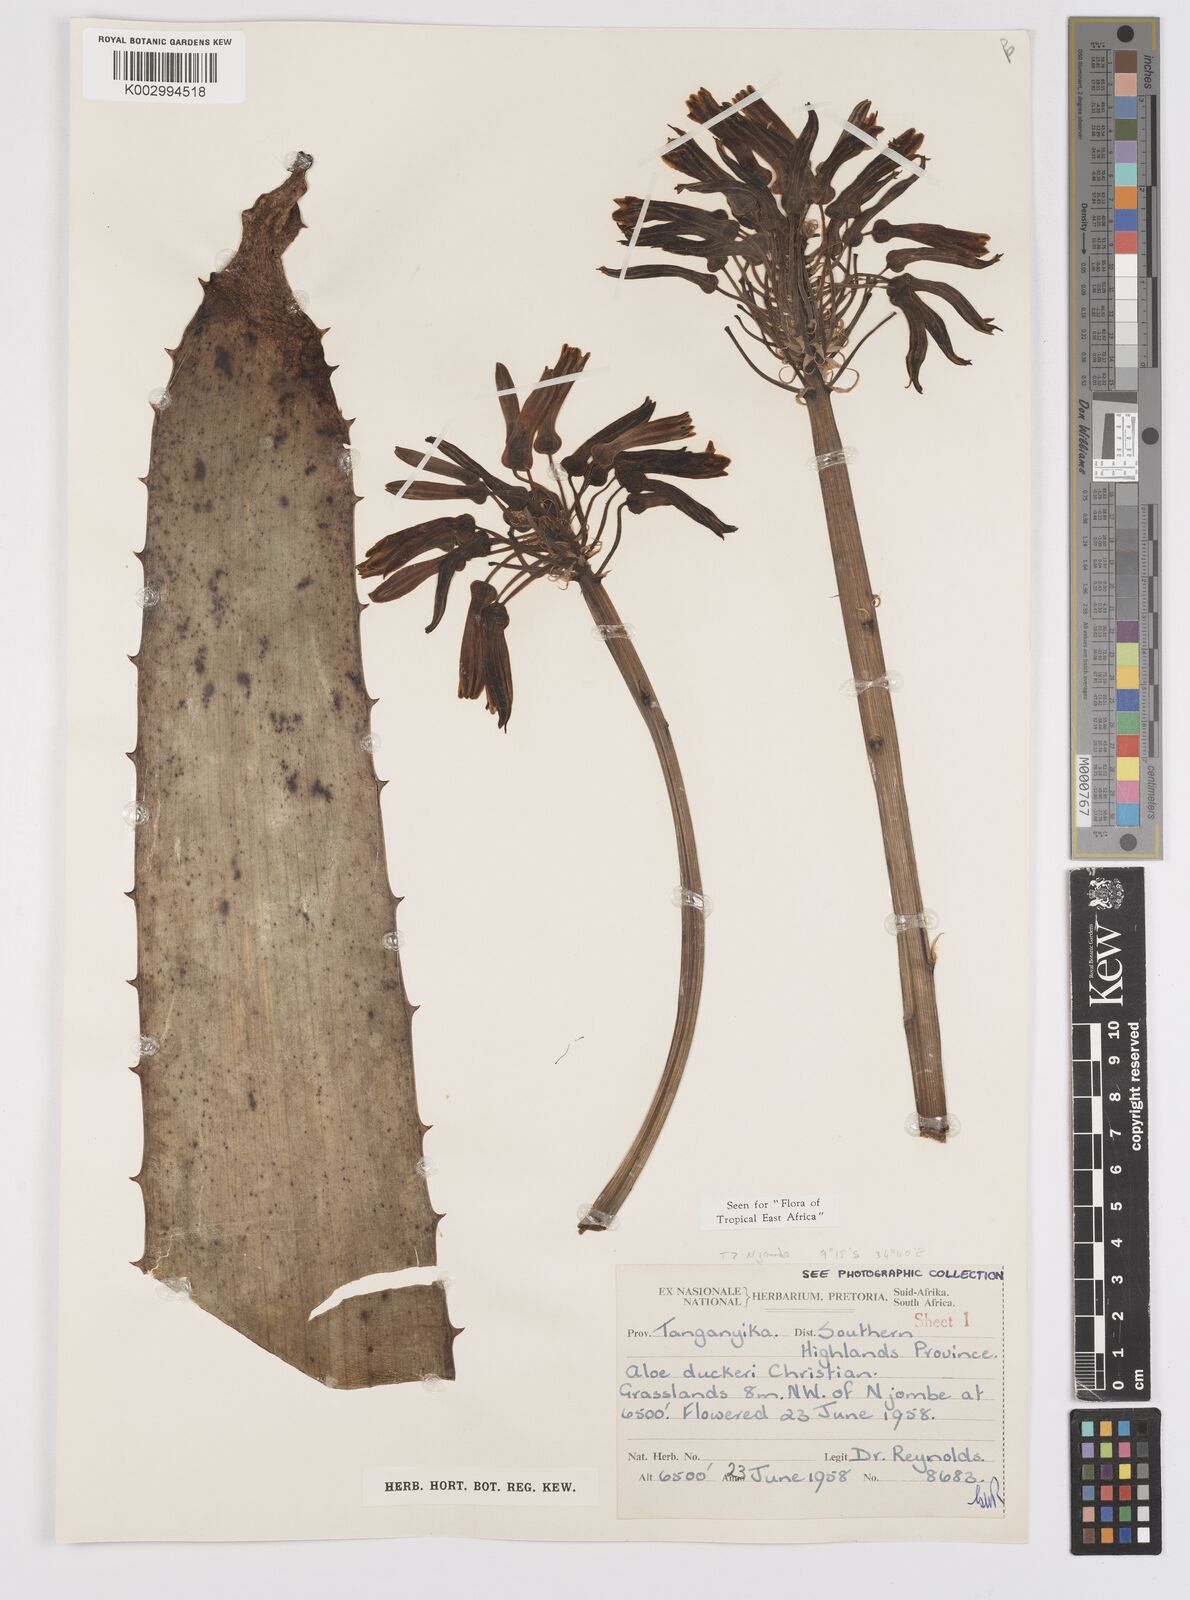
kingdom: Plantae
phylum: Tracheophyta
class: Liliopsida
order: Asparagales
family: Asphodelaceae
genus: Aloe
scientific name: Aloe duckeri
